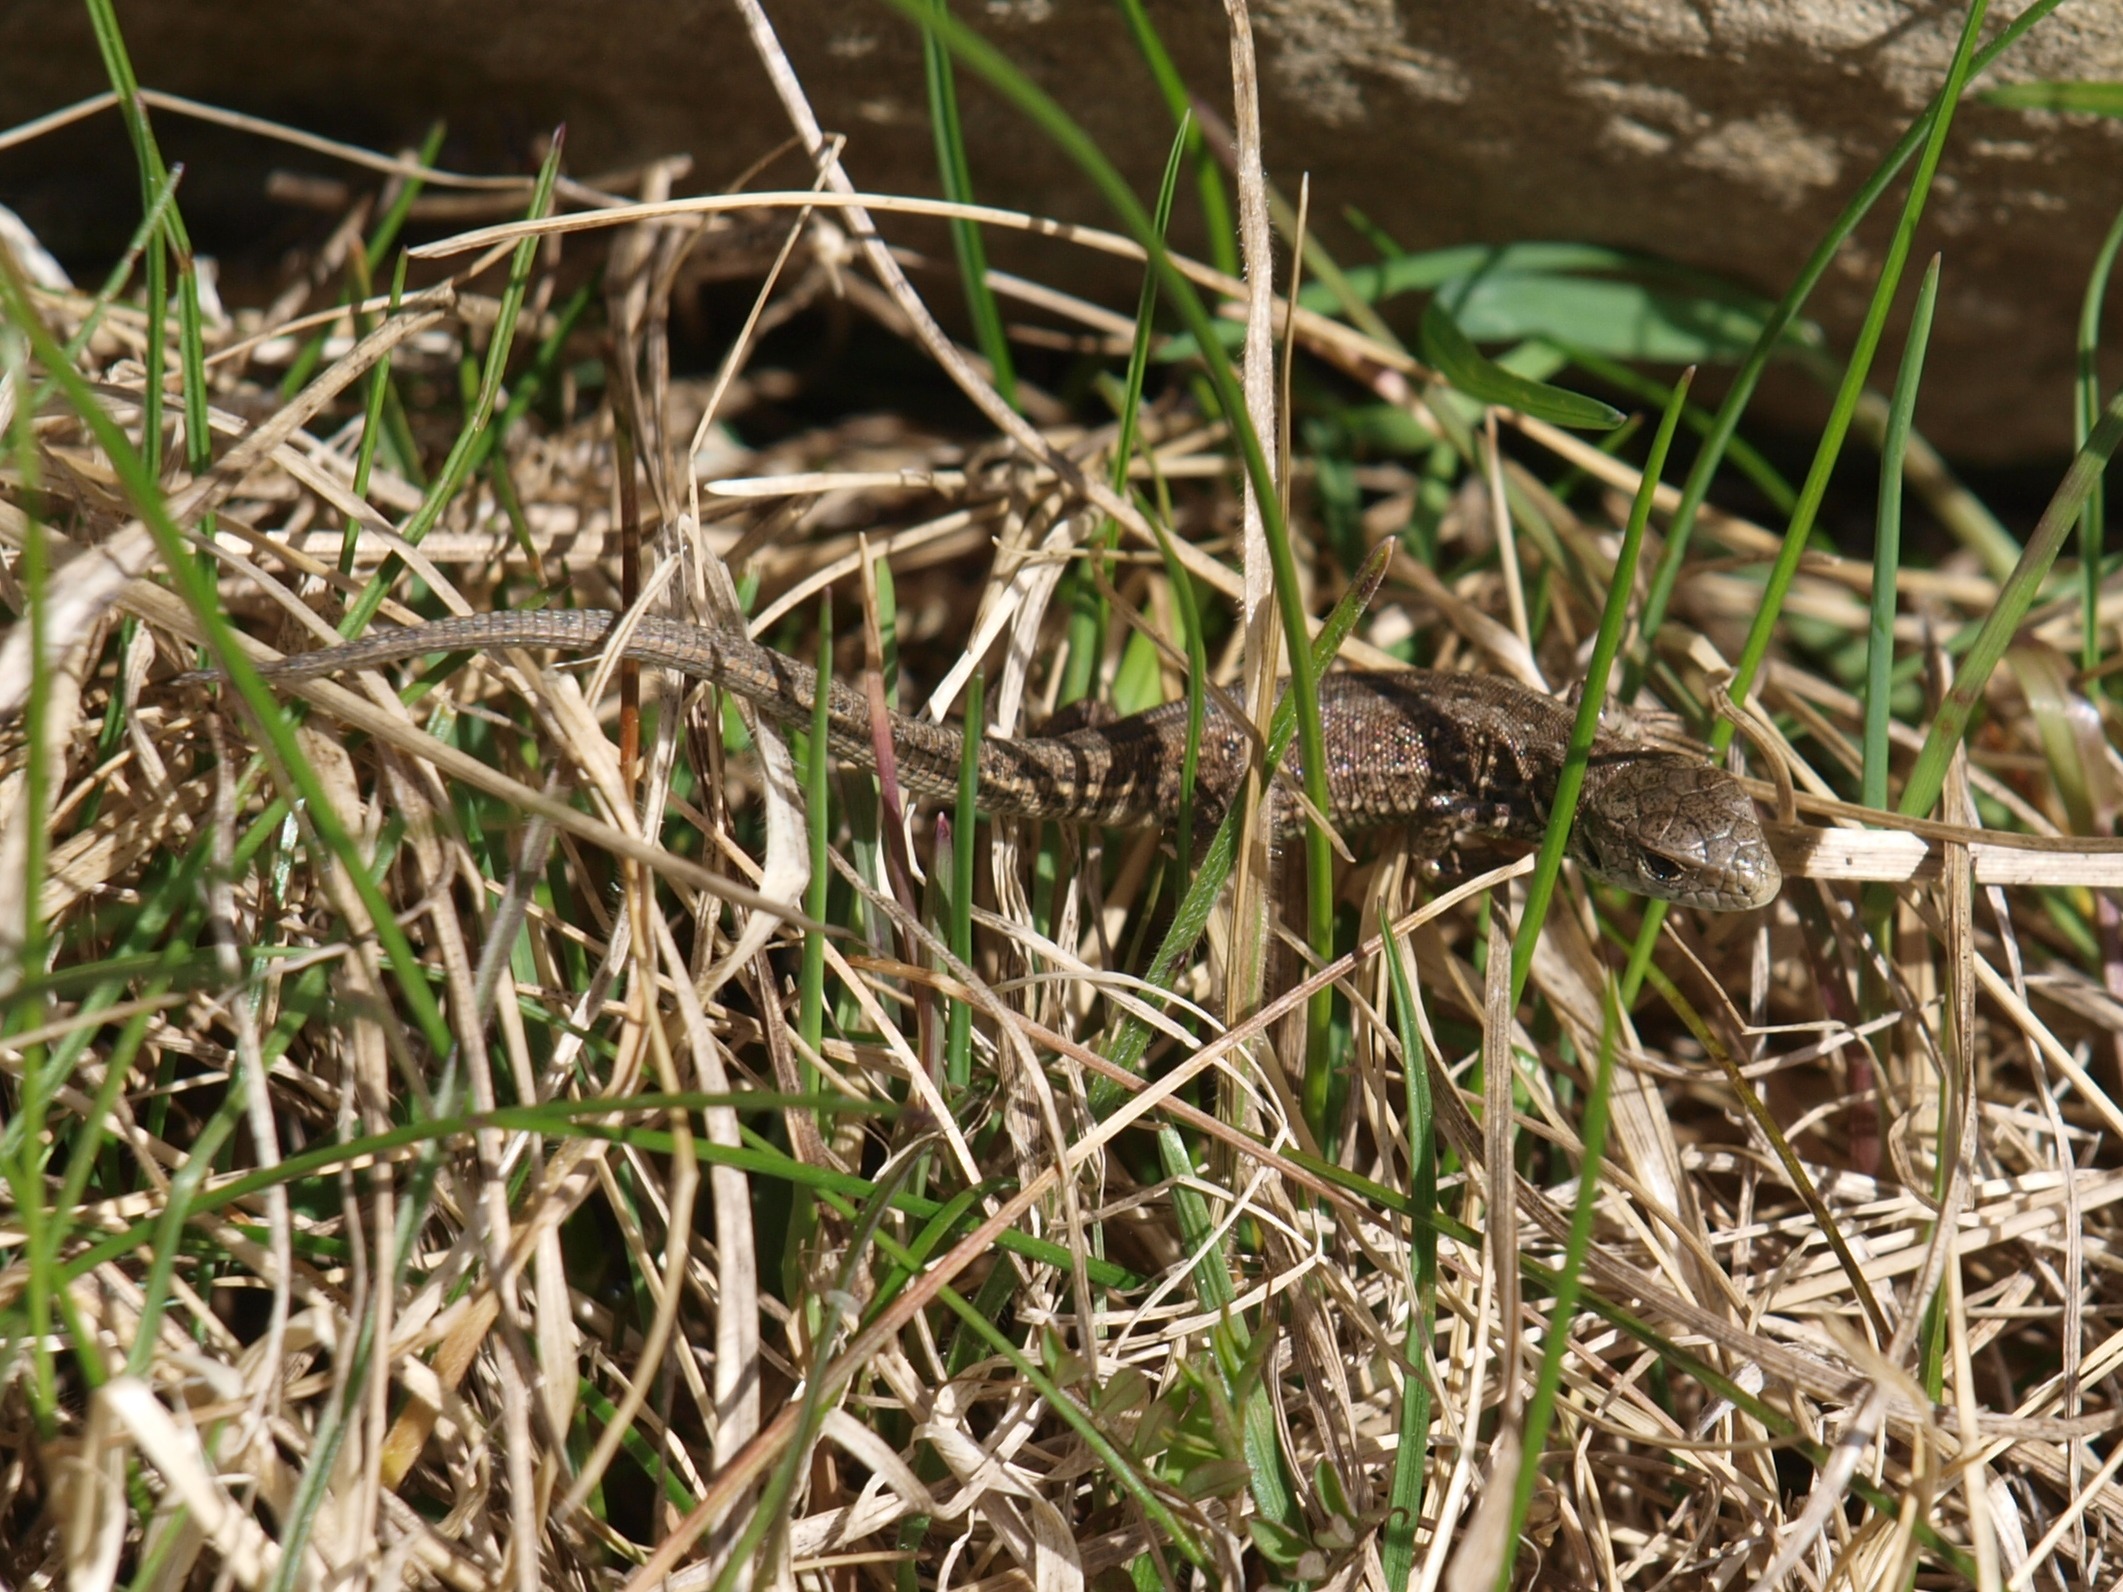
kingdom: Animalia
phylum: Chordata
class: Squamata
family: Lacertidae
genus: Lacerta
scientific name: Lacerta agilis
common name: Markfirben
